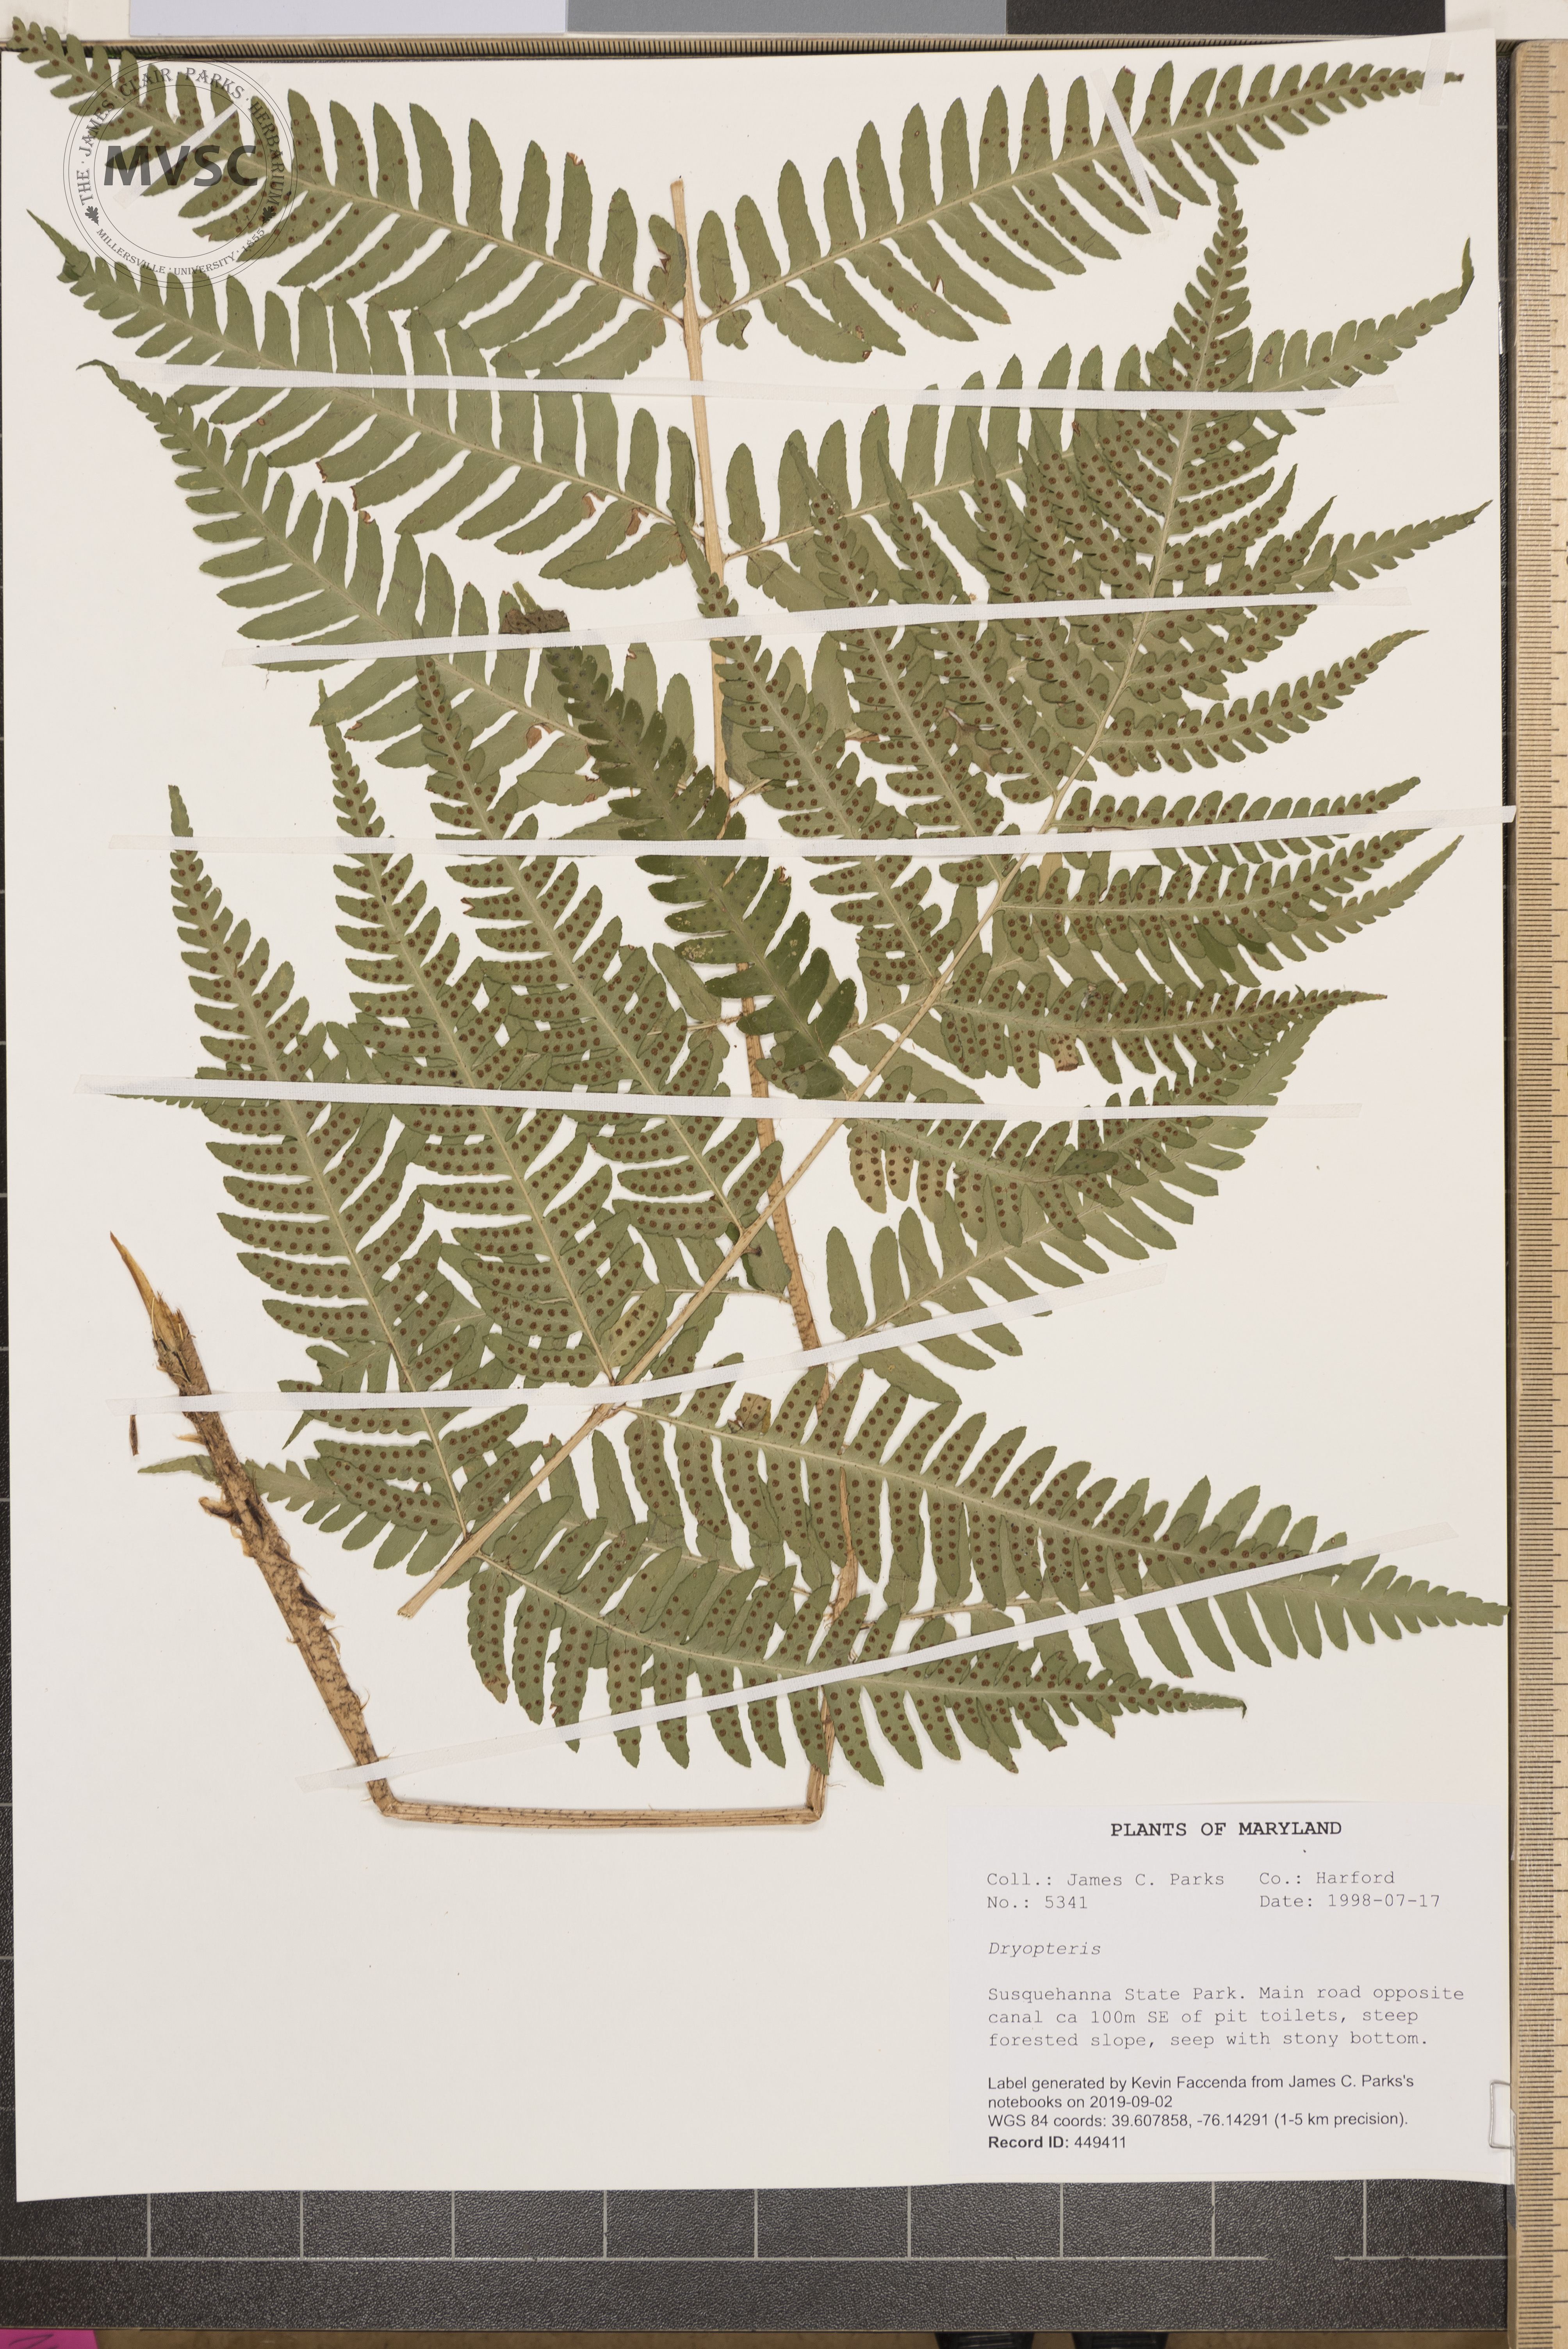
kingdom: Plantae
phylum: Tracheophyta
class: Polypodiopsida
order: Polypodiales
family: Dryopteridaceae
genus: Dryopteris
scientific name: Dryopteris leedsii
